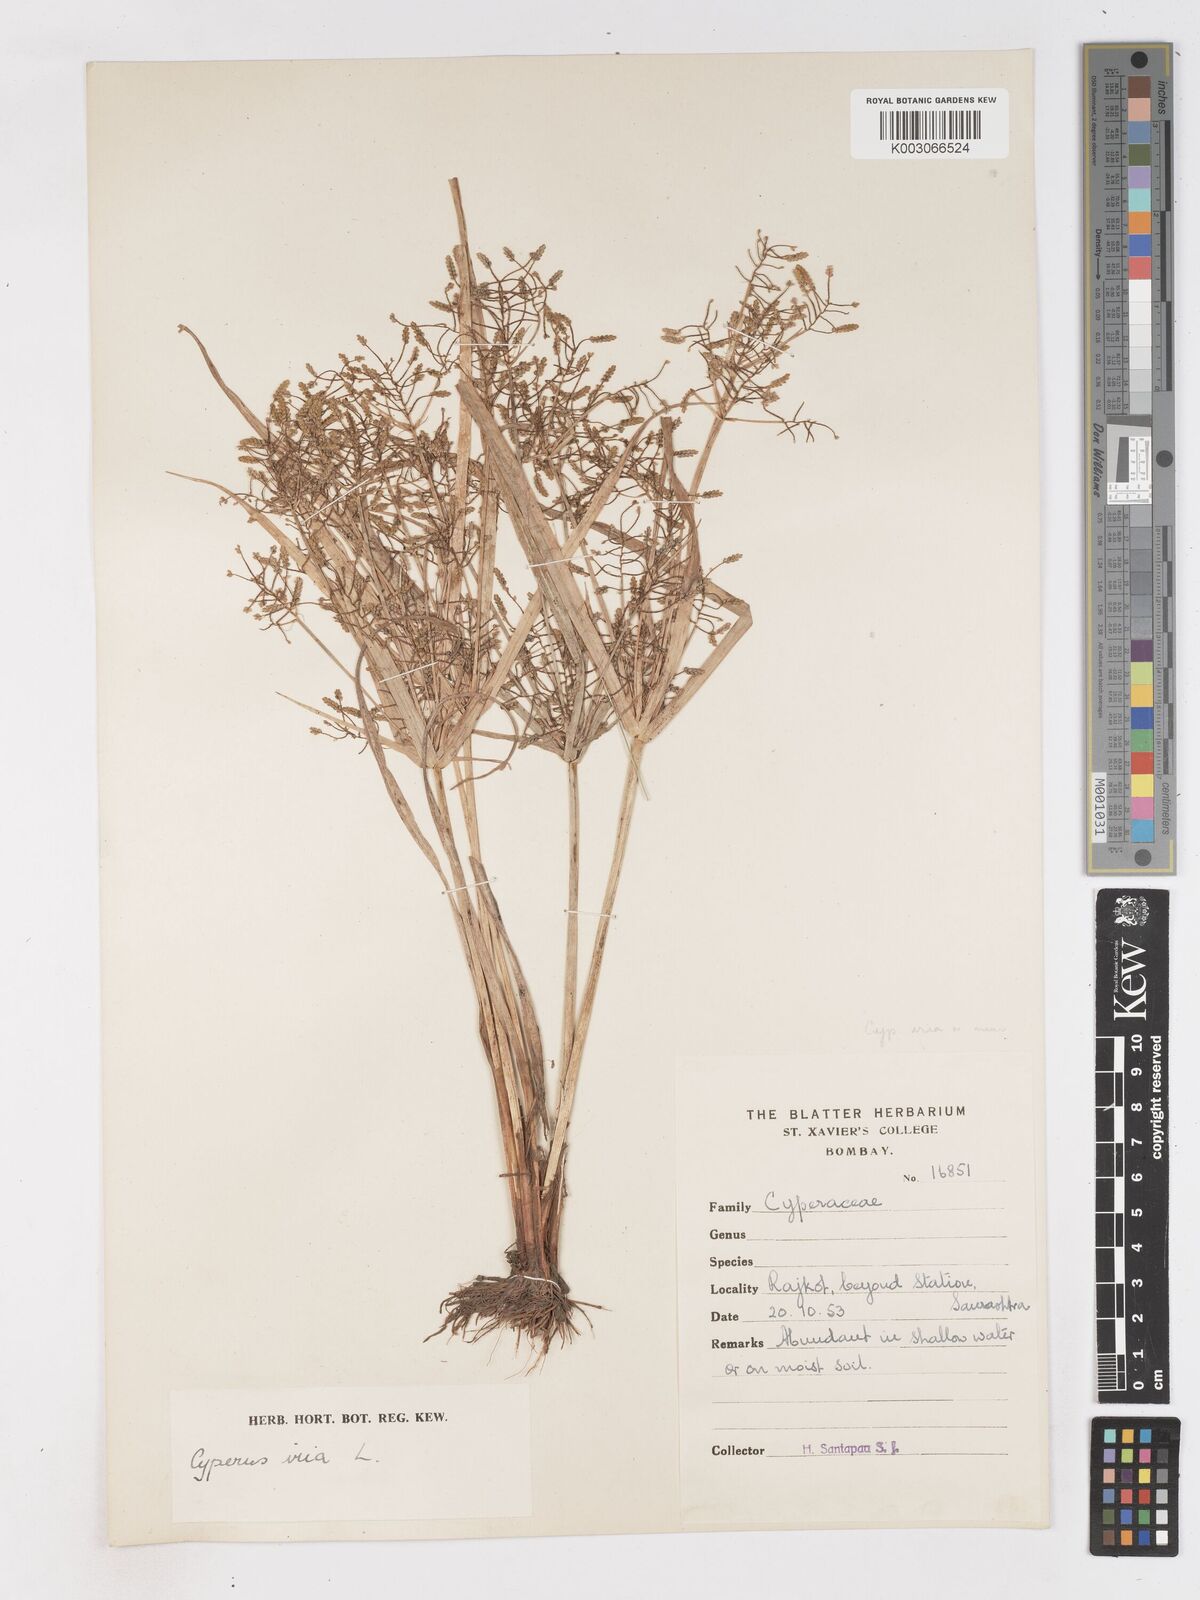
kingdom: Plantae
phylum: Tracheophyta
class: Liliopsida
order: Poales
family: Cyperaceae
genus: Cyperus
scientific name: Cyperus iria
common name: Ricefield flatsedge
